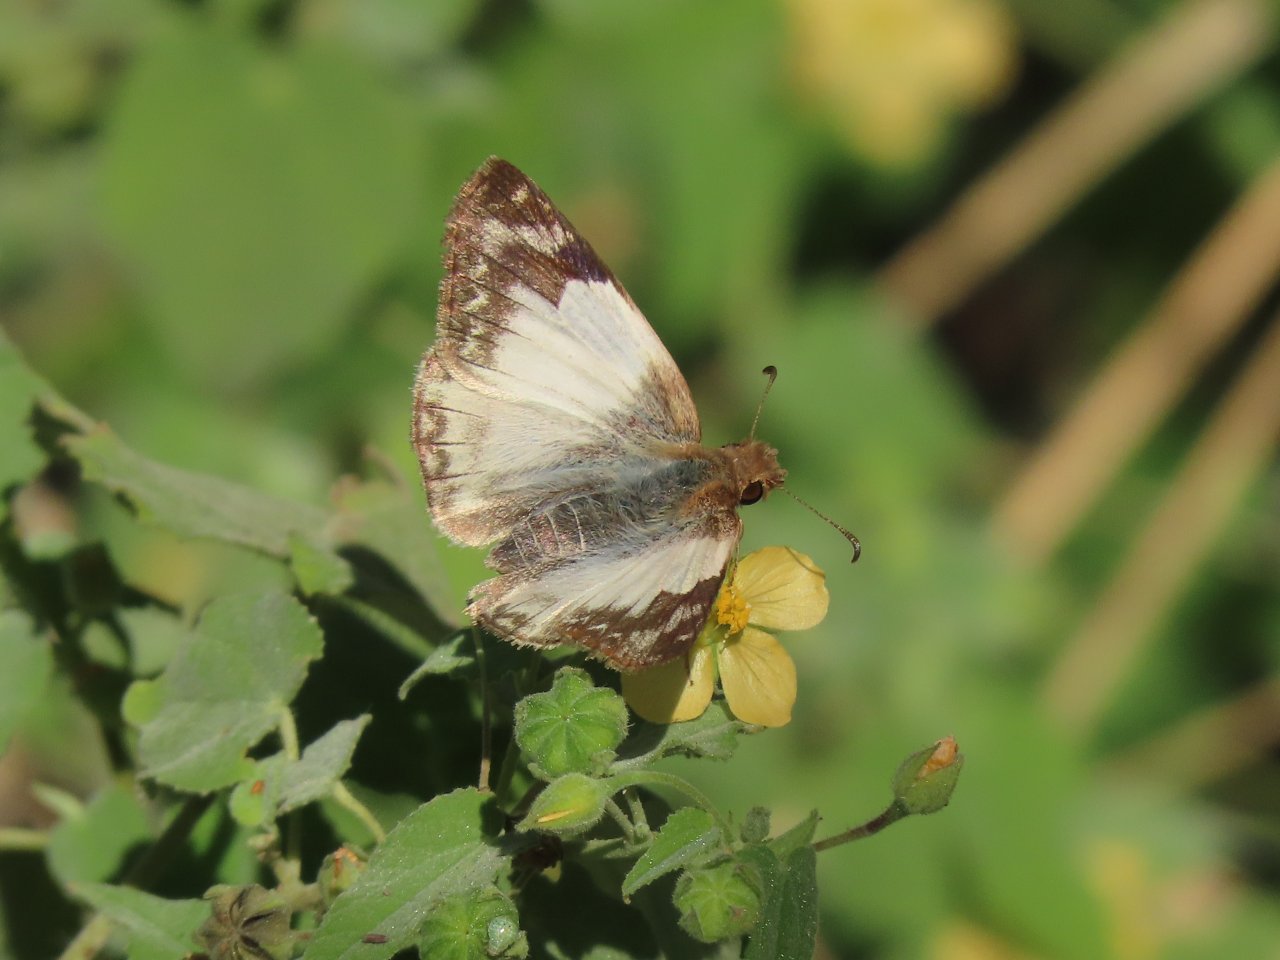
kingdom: Animalia
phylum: Arthropoda
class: Insecta
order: Lepidoptera
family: Hesperiidae
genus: Heliopetes
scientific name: Heliopetes laviana
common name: Laviana White-Skipper
